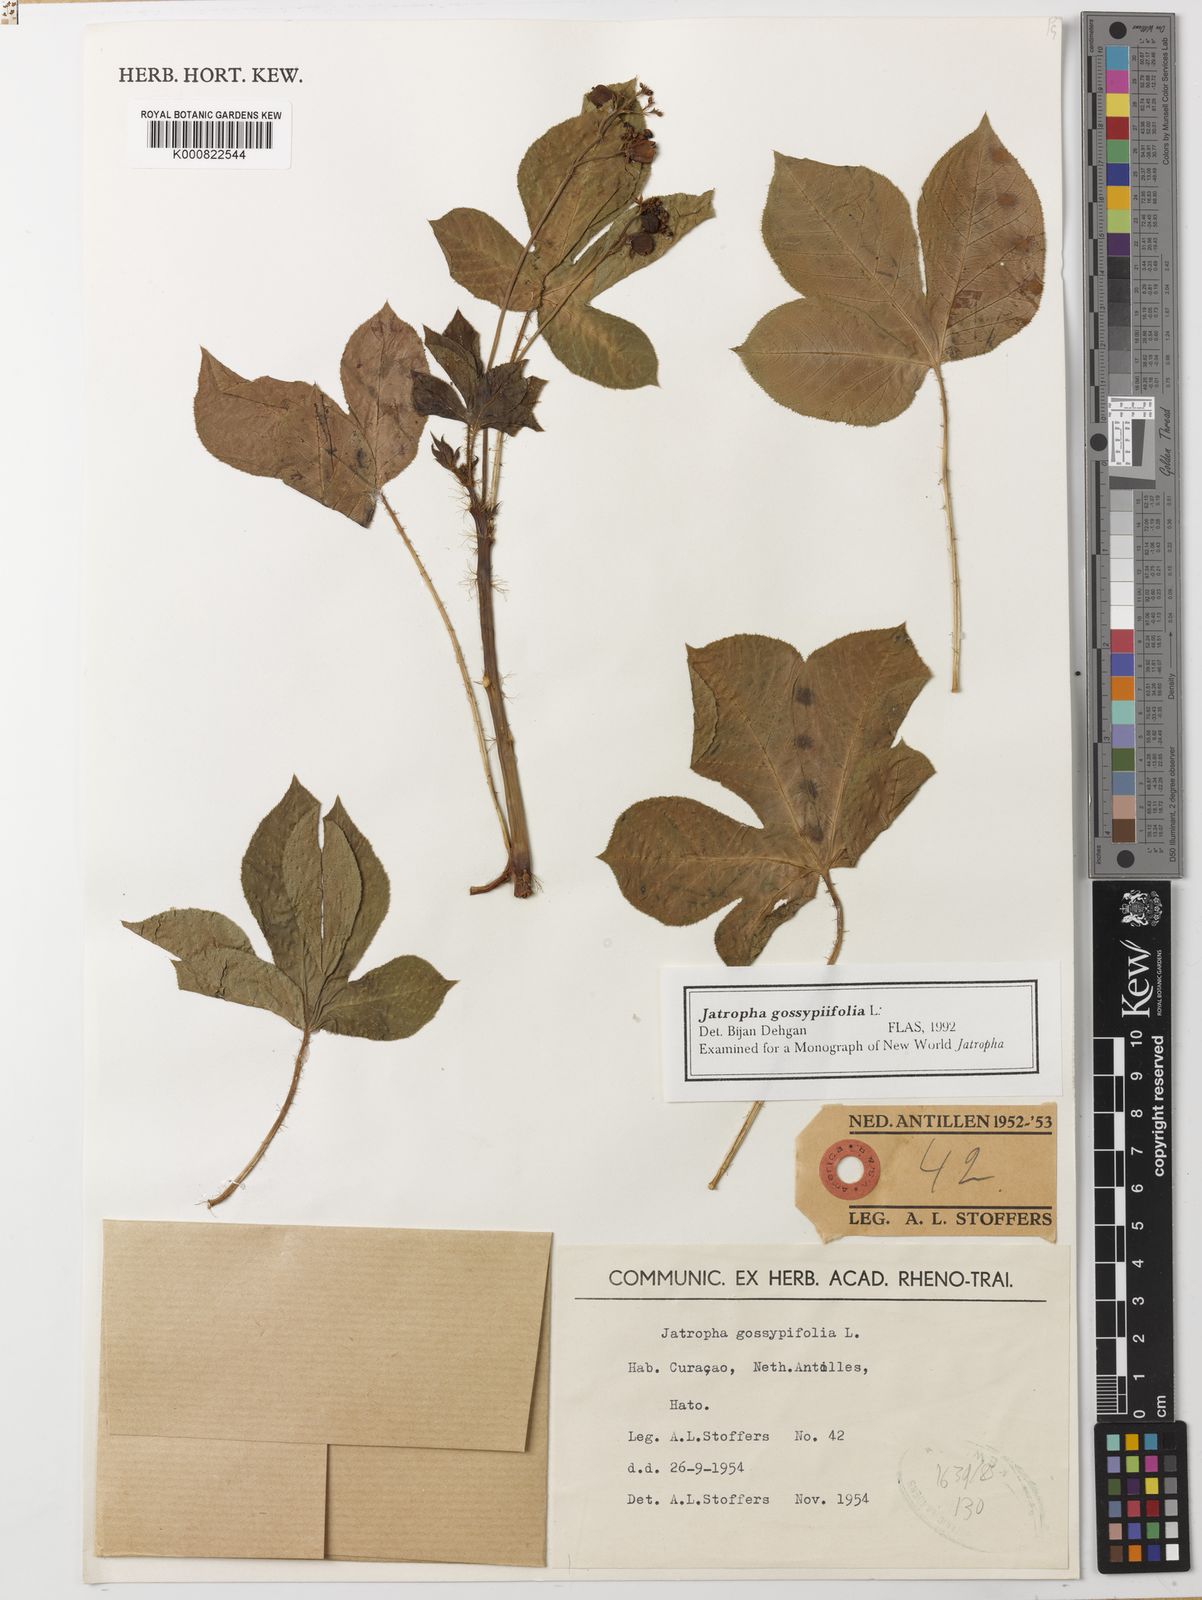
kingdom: Plantae
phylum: Tracheophyta
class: Magnoliopsida
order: Malpighiales
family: Euphorbiaceae
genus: Jatropha
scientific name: Jatropha gossypiifolia
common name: Bellyache bush
